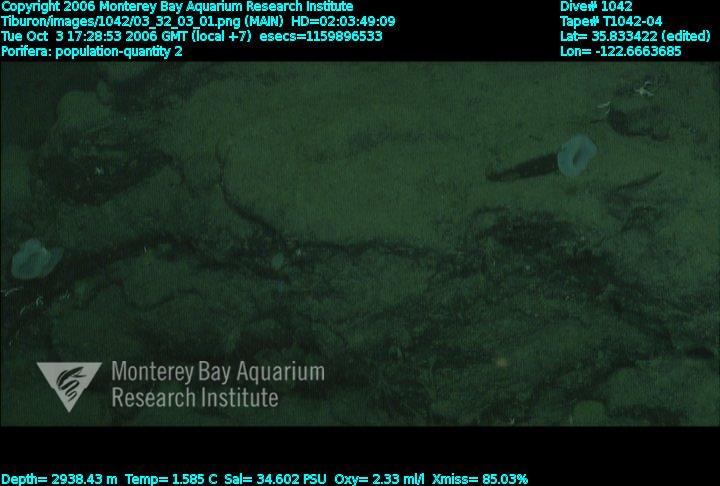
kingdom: Animalia
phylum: Porifera
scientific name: Porifera
